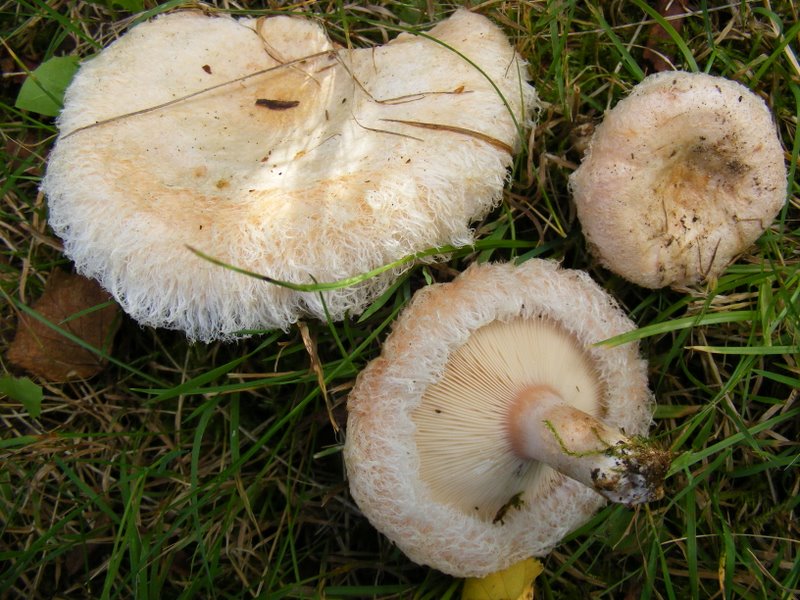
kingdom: Fungi
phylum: Basidiomycota
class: Agaricomycetes
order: Russulales
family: Russulaceae
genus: Lactarius
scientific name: Lactarius pubescens
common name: dunet mælkehat
